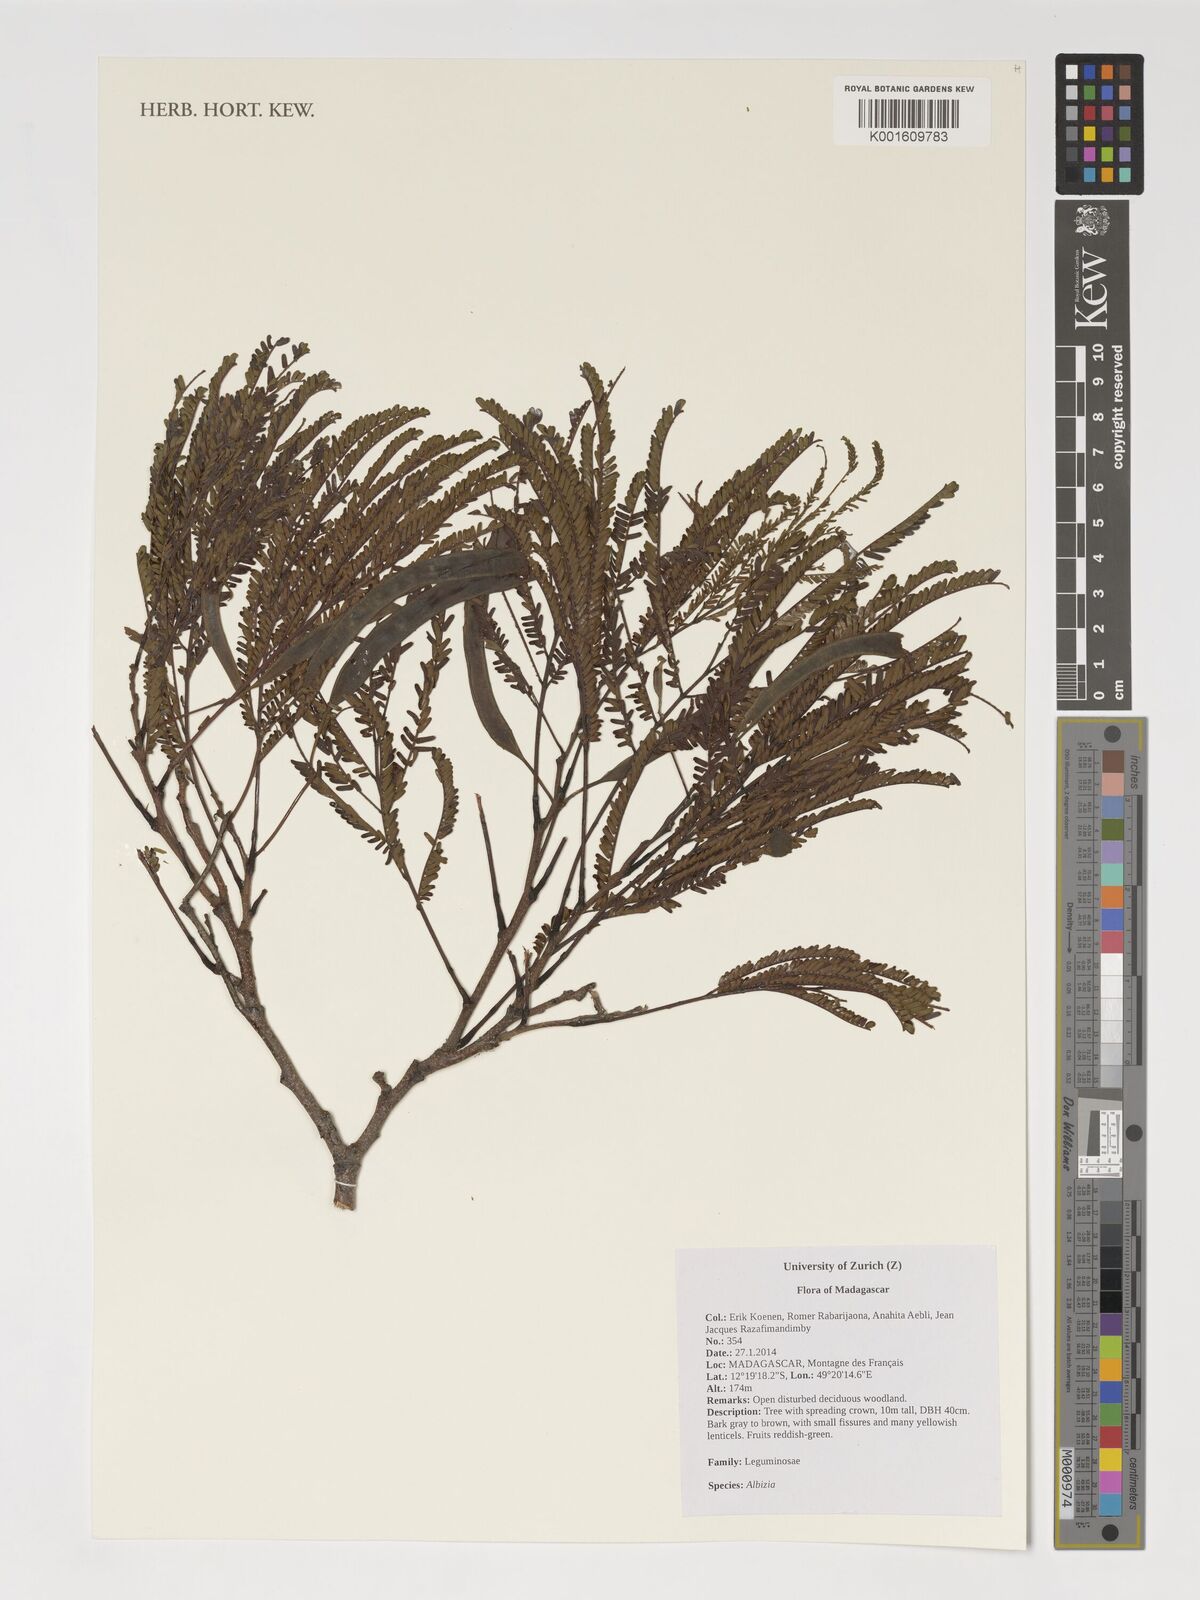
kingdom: Plantae
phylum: Tracheophyta
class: Magnoliopsida
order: Fabales
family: Fabaceae
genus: Albizia
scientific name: Albizia
